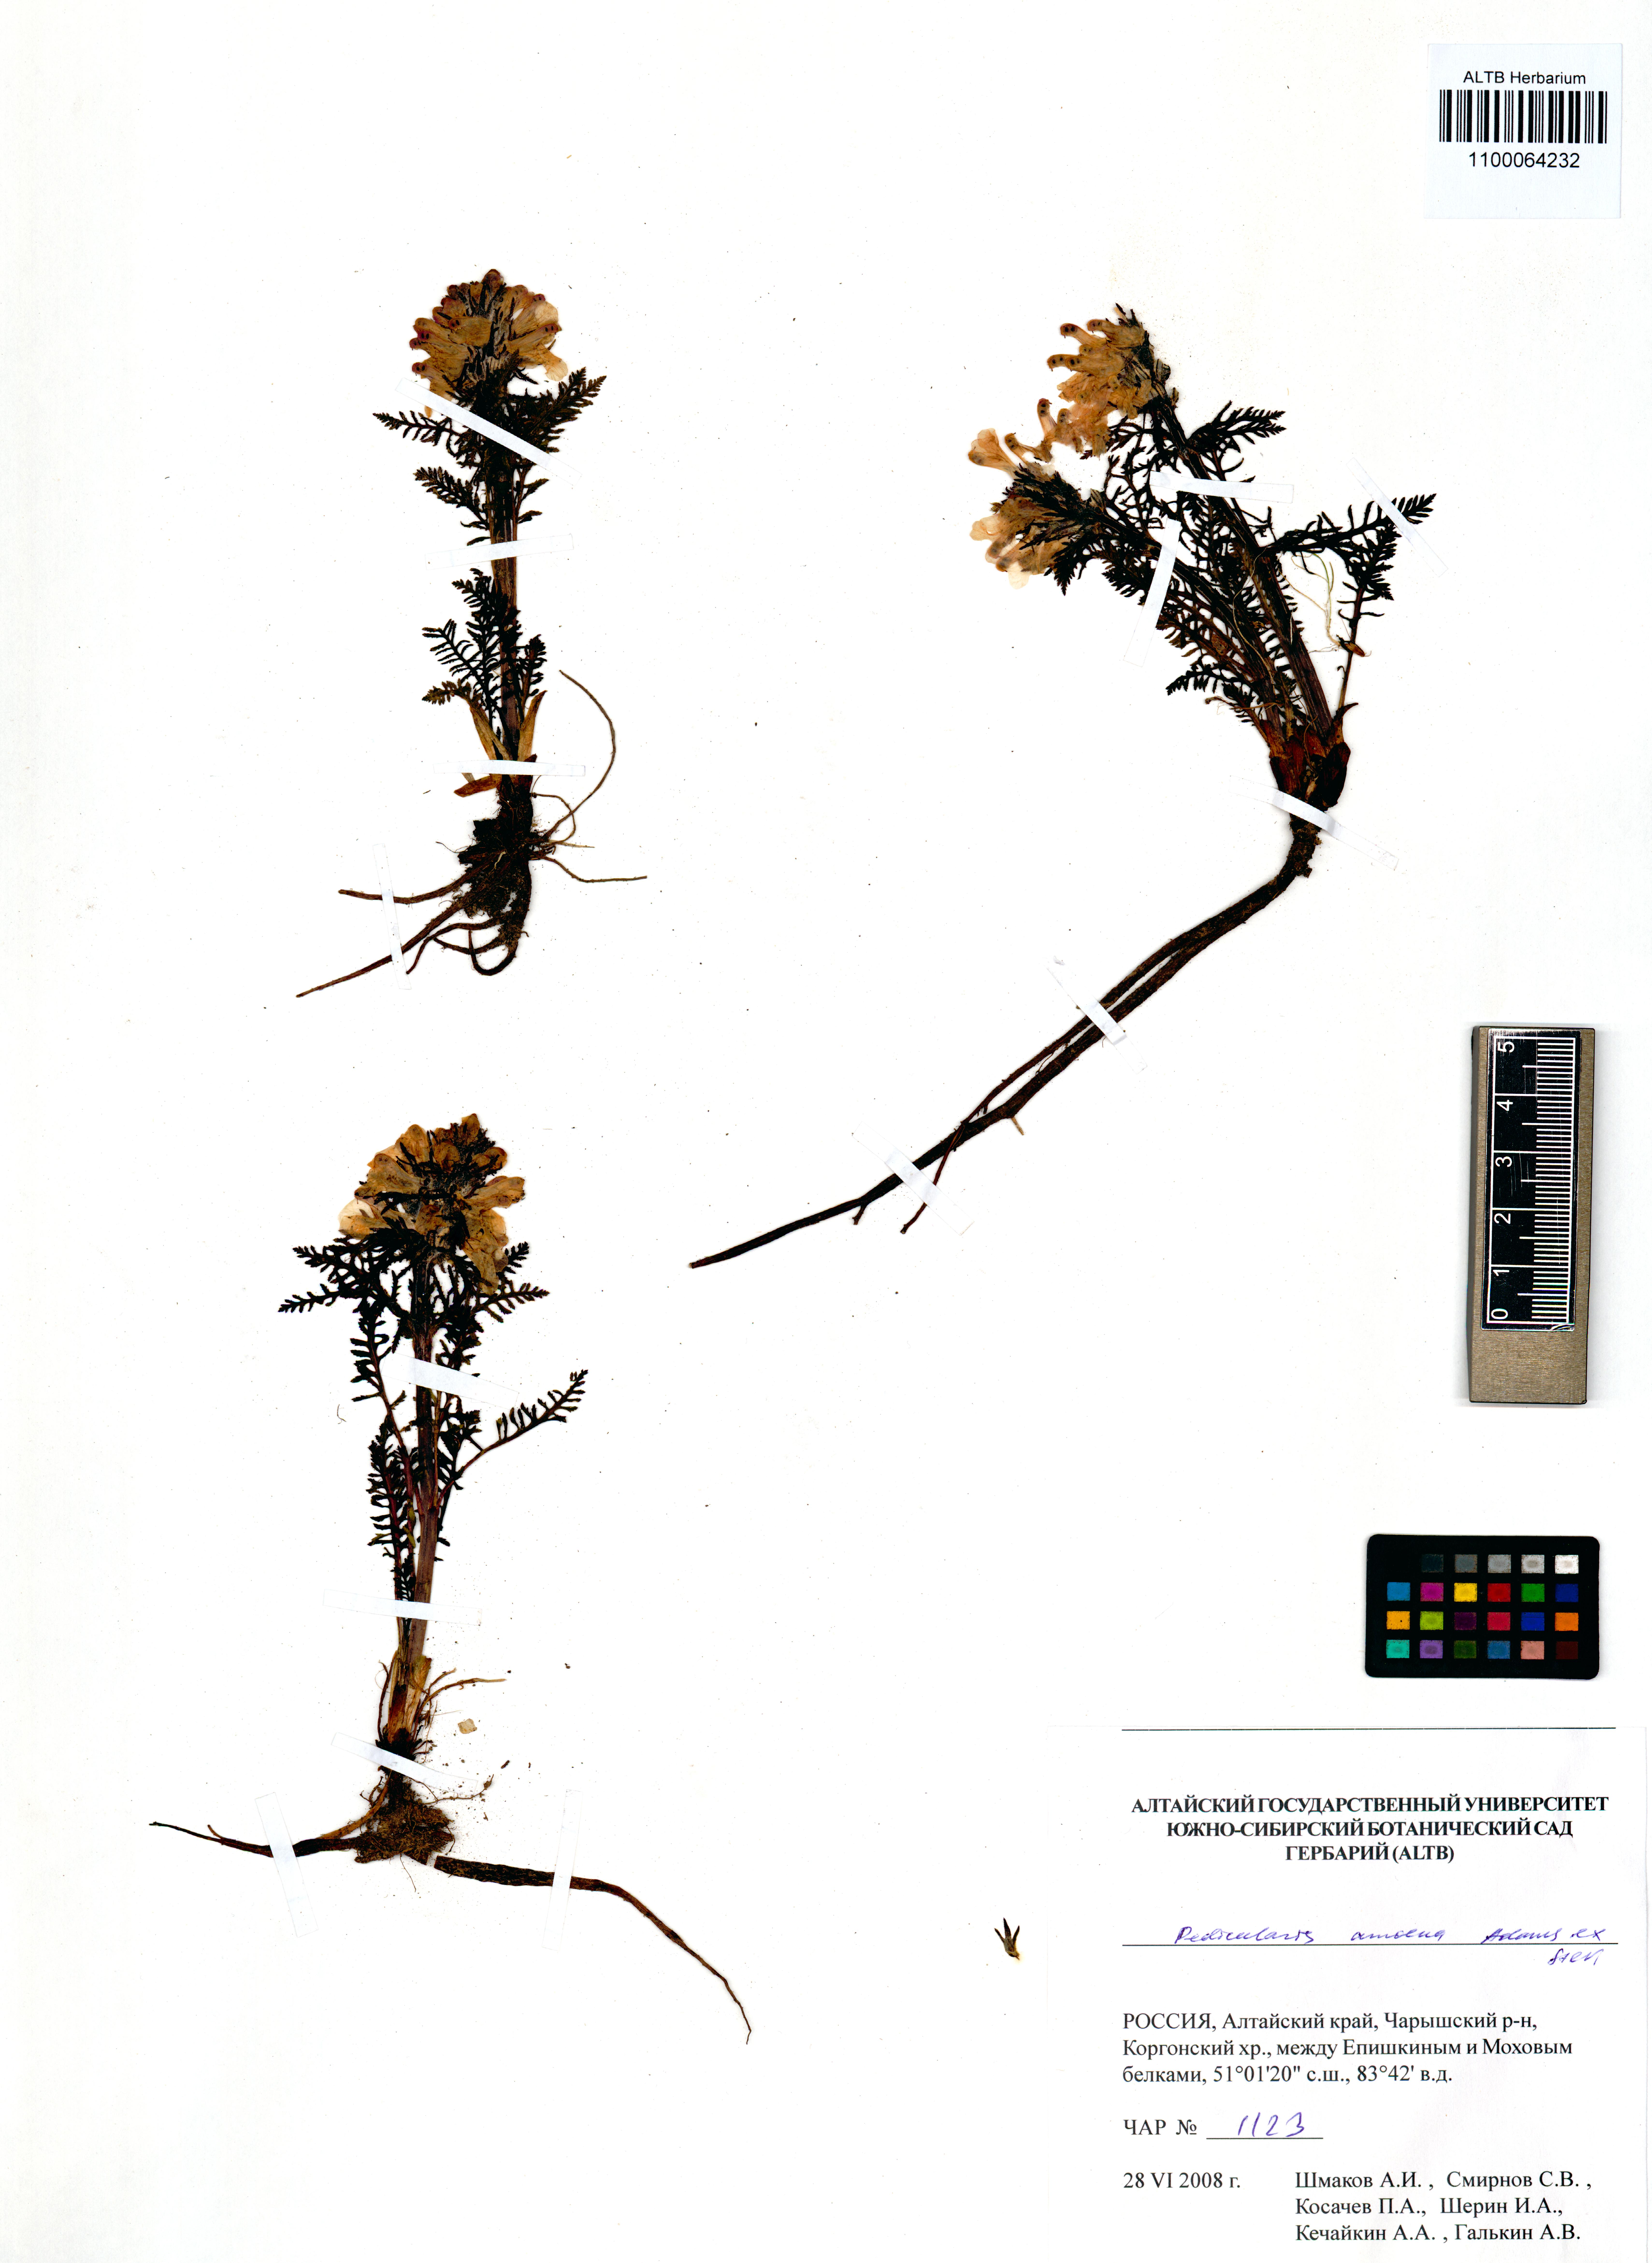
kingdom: Plantae
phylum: Tracheophyta
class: Magnoliopsida
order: Lamiales
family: Orobanchaceae
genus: Pedicularis
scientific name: Pedicularis amoena
